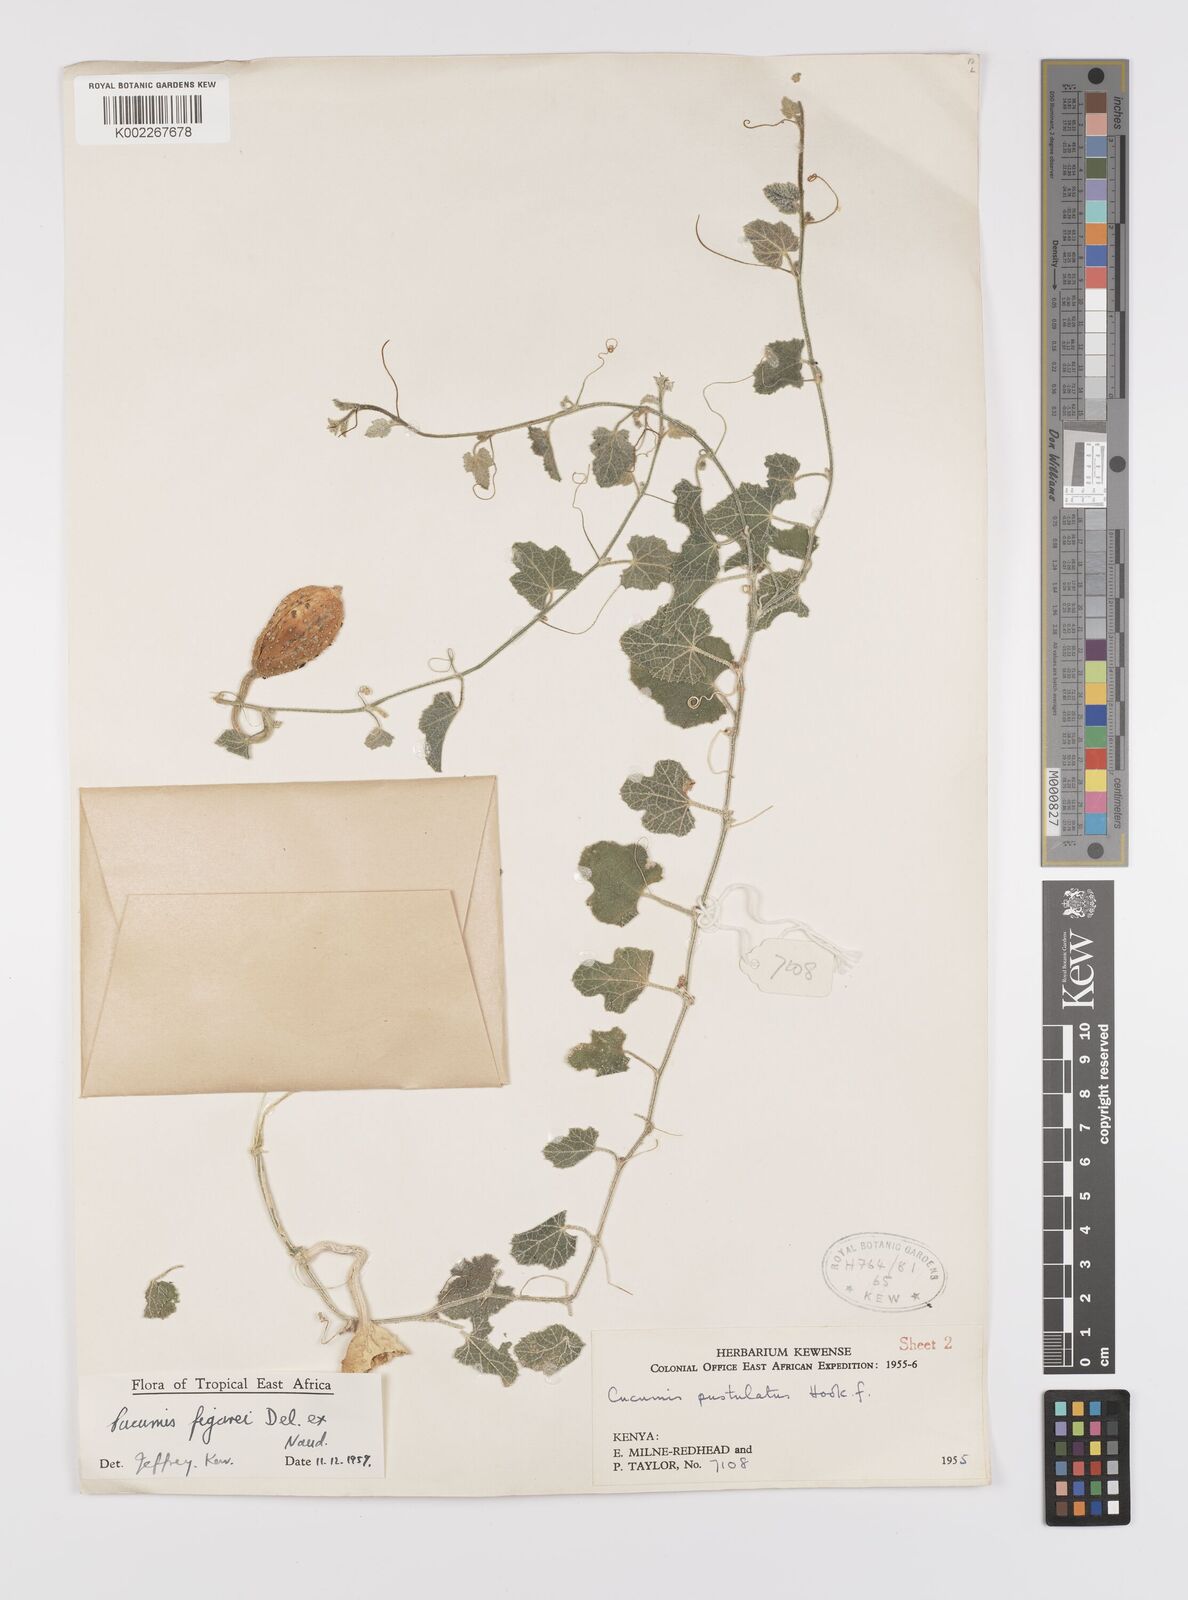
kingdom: Plantae
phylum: Tracheophyta
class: Magnoliopsida
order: Cucurbitales
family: Cucurbitaceae
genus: Cucumis
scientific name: Cucumis
